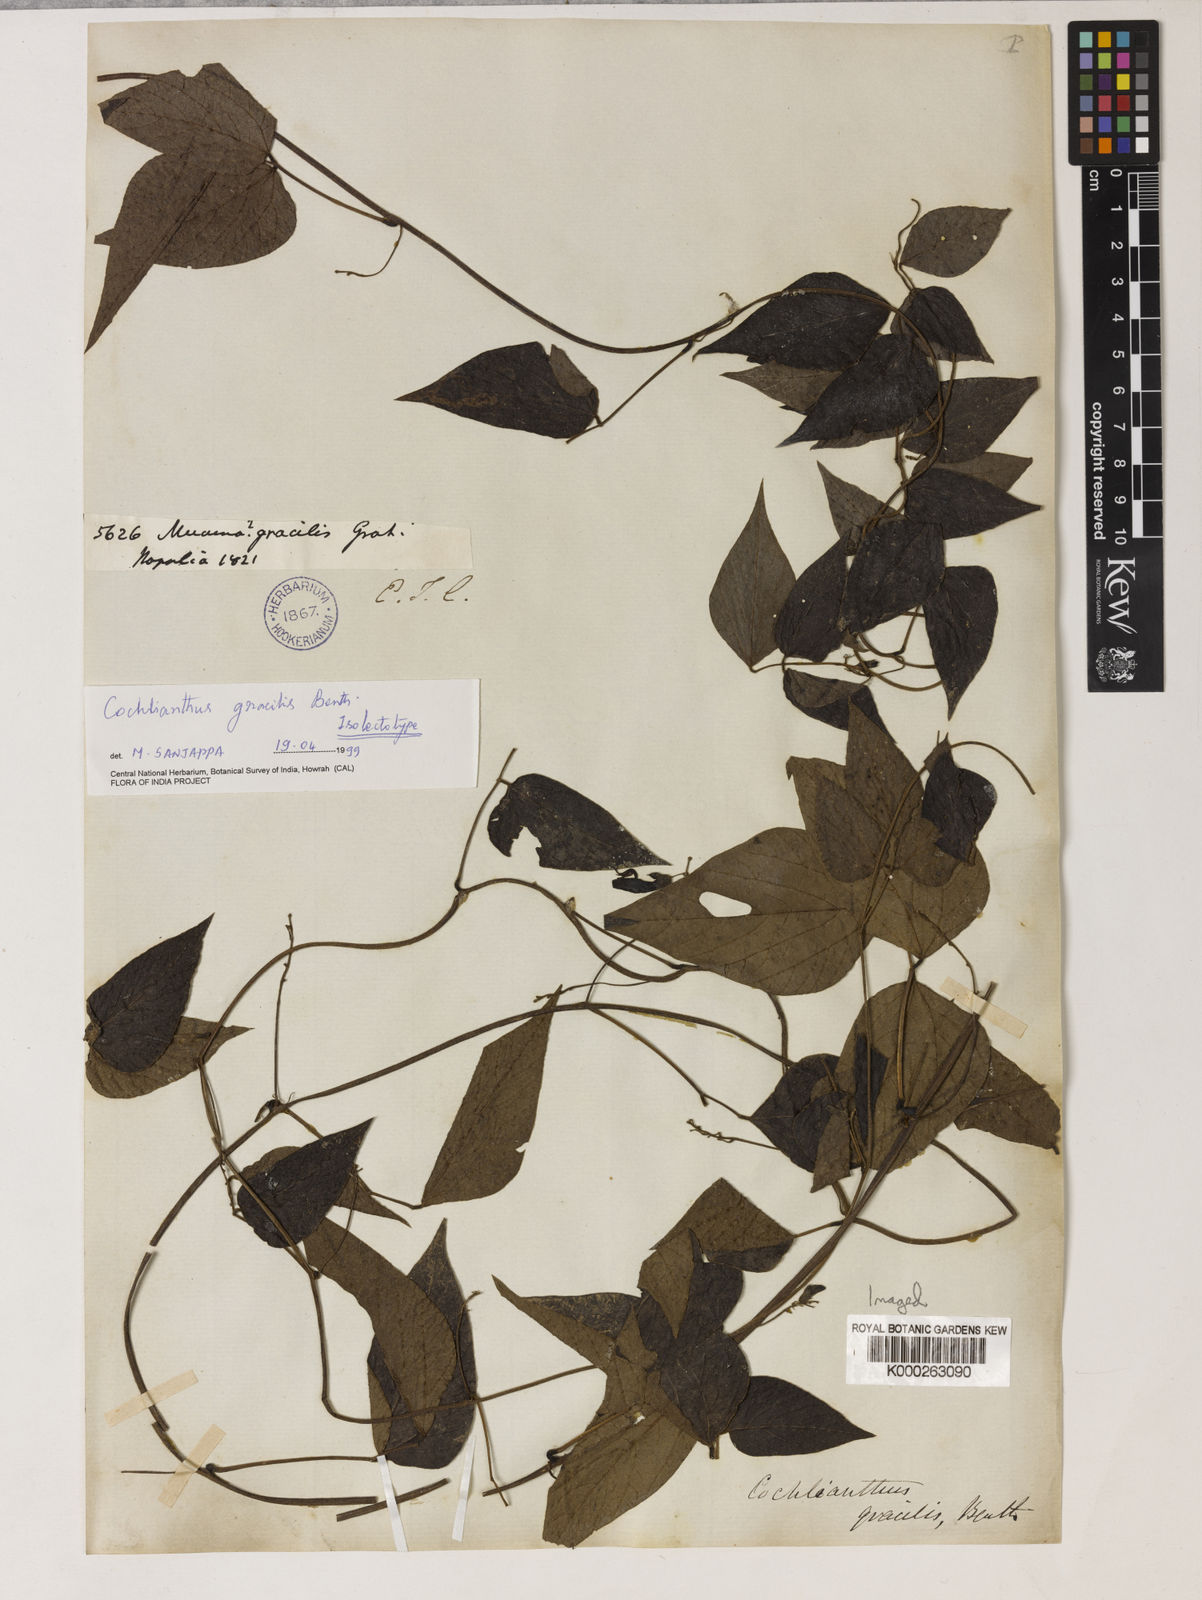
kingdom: Plantae
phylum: Tracheophyta
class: Magnoliopsida
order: Fabales
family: Fabaceae
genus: Cochlianthus
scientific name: Cochlianthus gracilis
